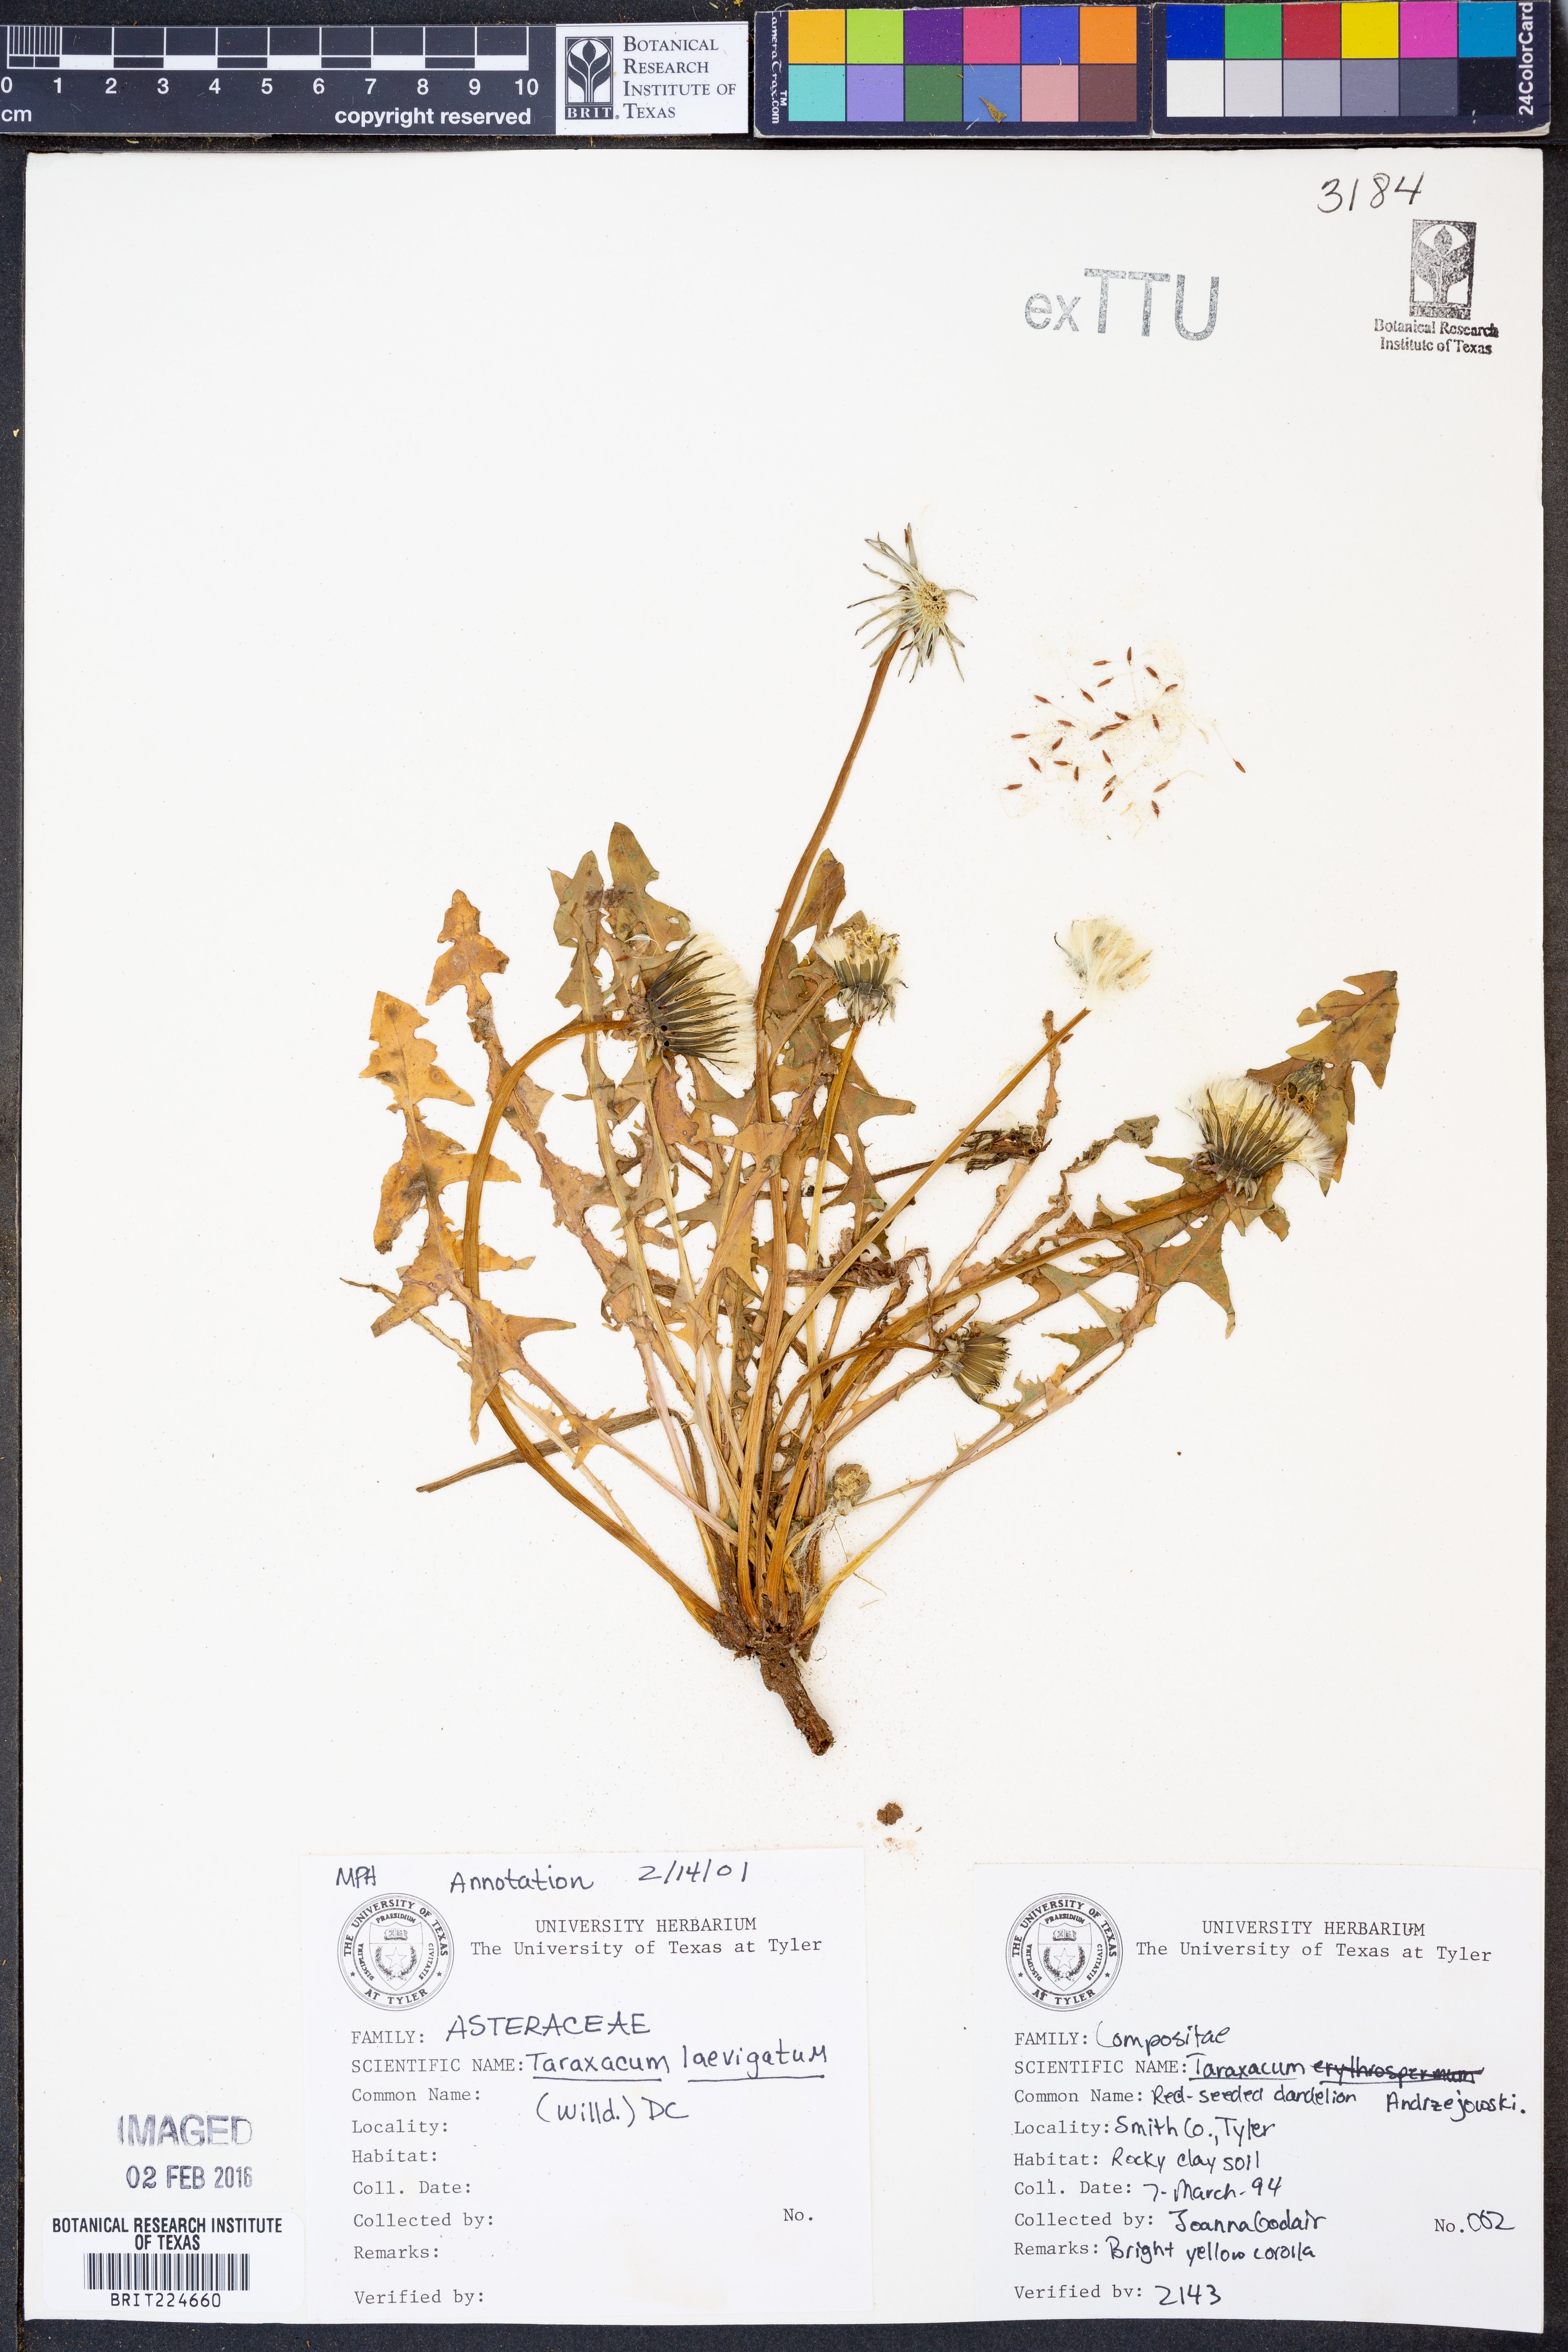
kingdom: Plantae
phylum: Tracheophyta
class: Magnoliopsida
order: Asterales
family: Asteraceae
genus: Taraxacum
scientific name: Taraxacum erythrospermum
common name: Rock dandelion
